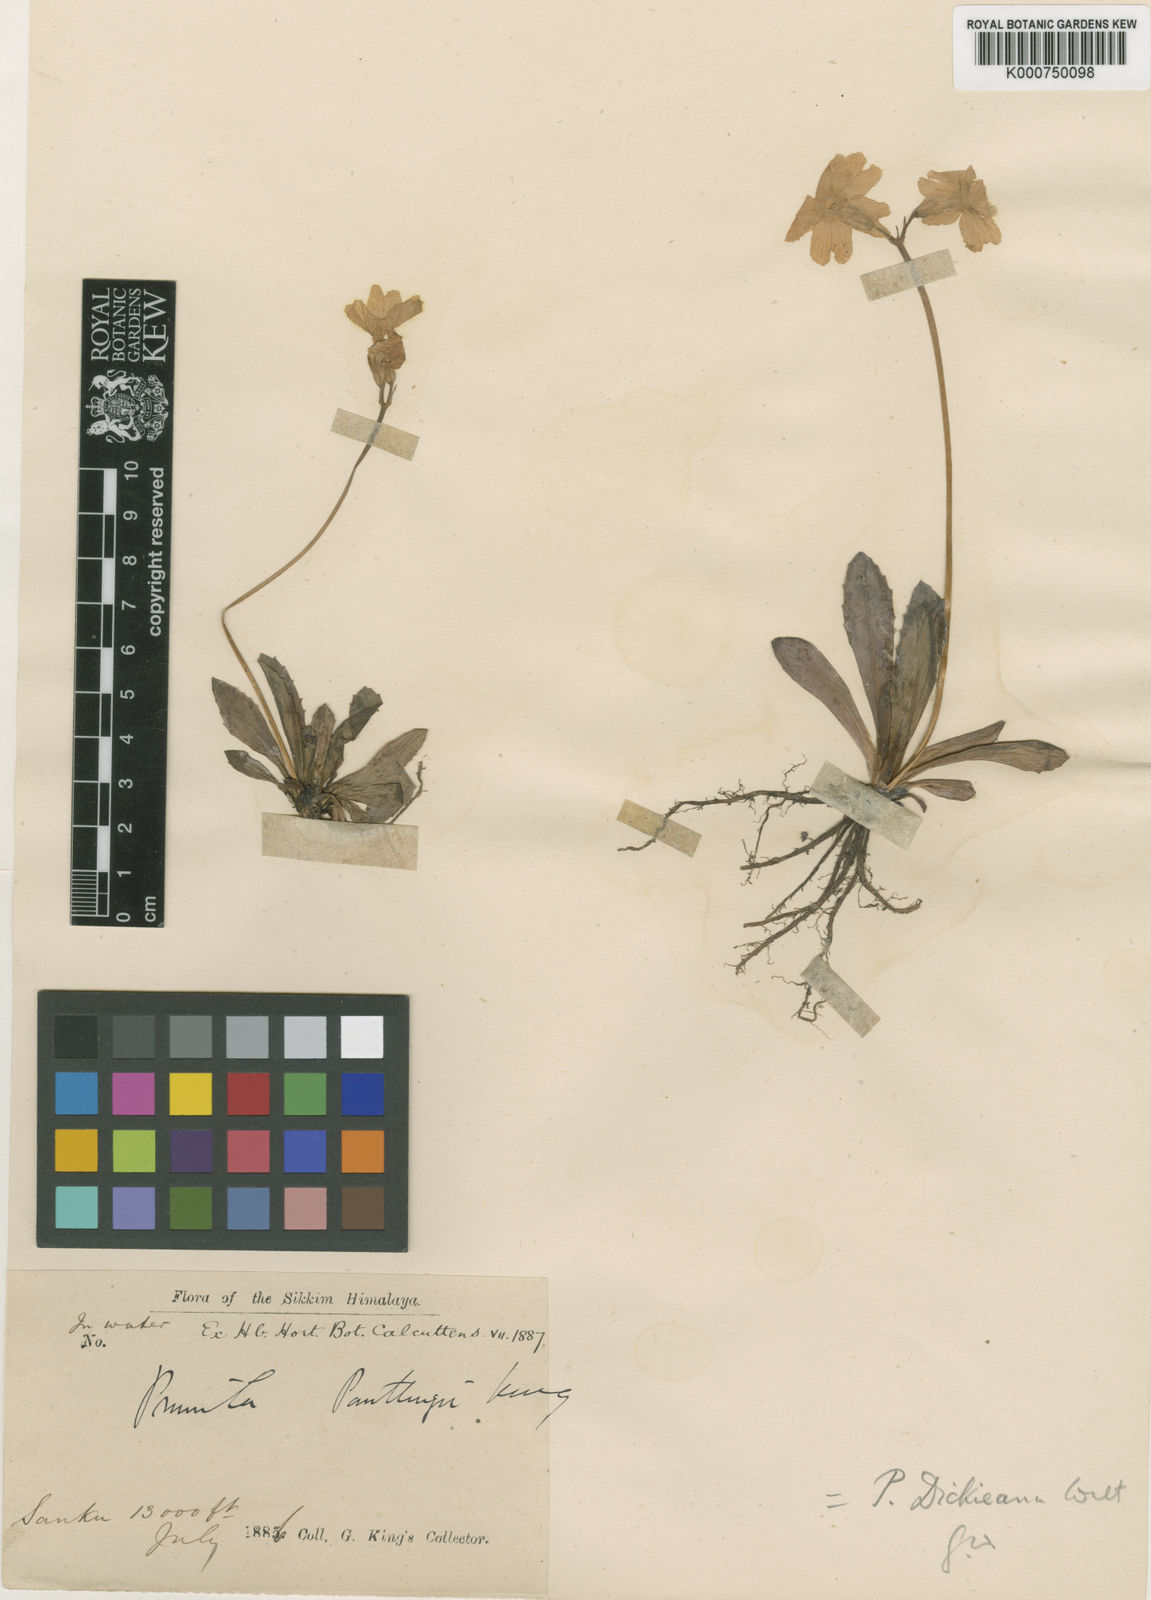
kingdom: Plantae
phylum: Tracheophyta
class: Magnoliopsida
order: Ericales
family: Primulaceae
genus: Primula
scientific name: Primula dickieana
